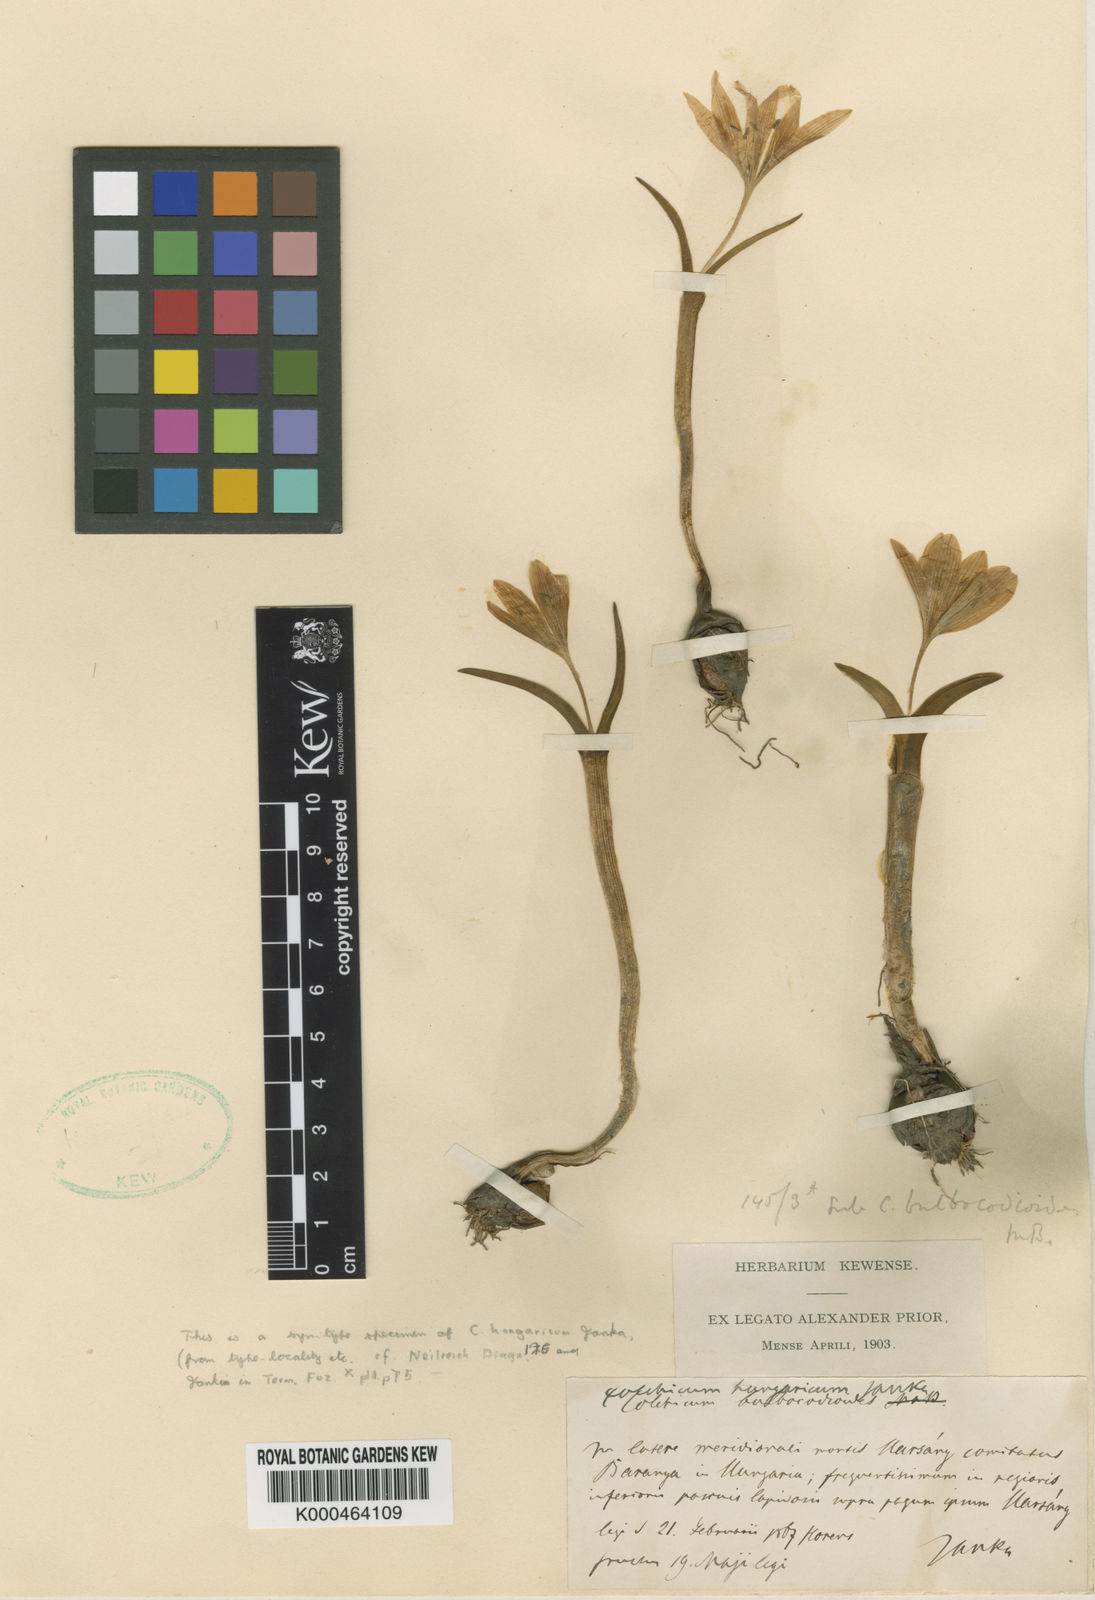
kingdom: Plantae
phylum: Tracheophyta
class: Liliopsida
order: Liliales
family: Colchicaceae
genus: Colchicum
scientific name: Colchicum hungaricum
